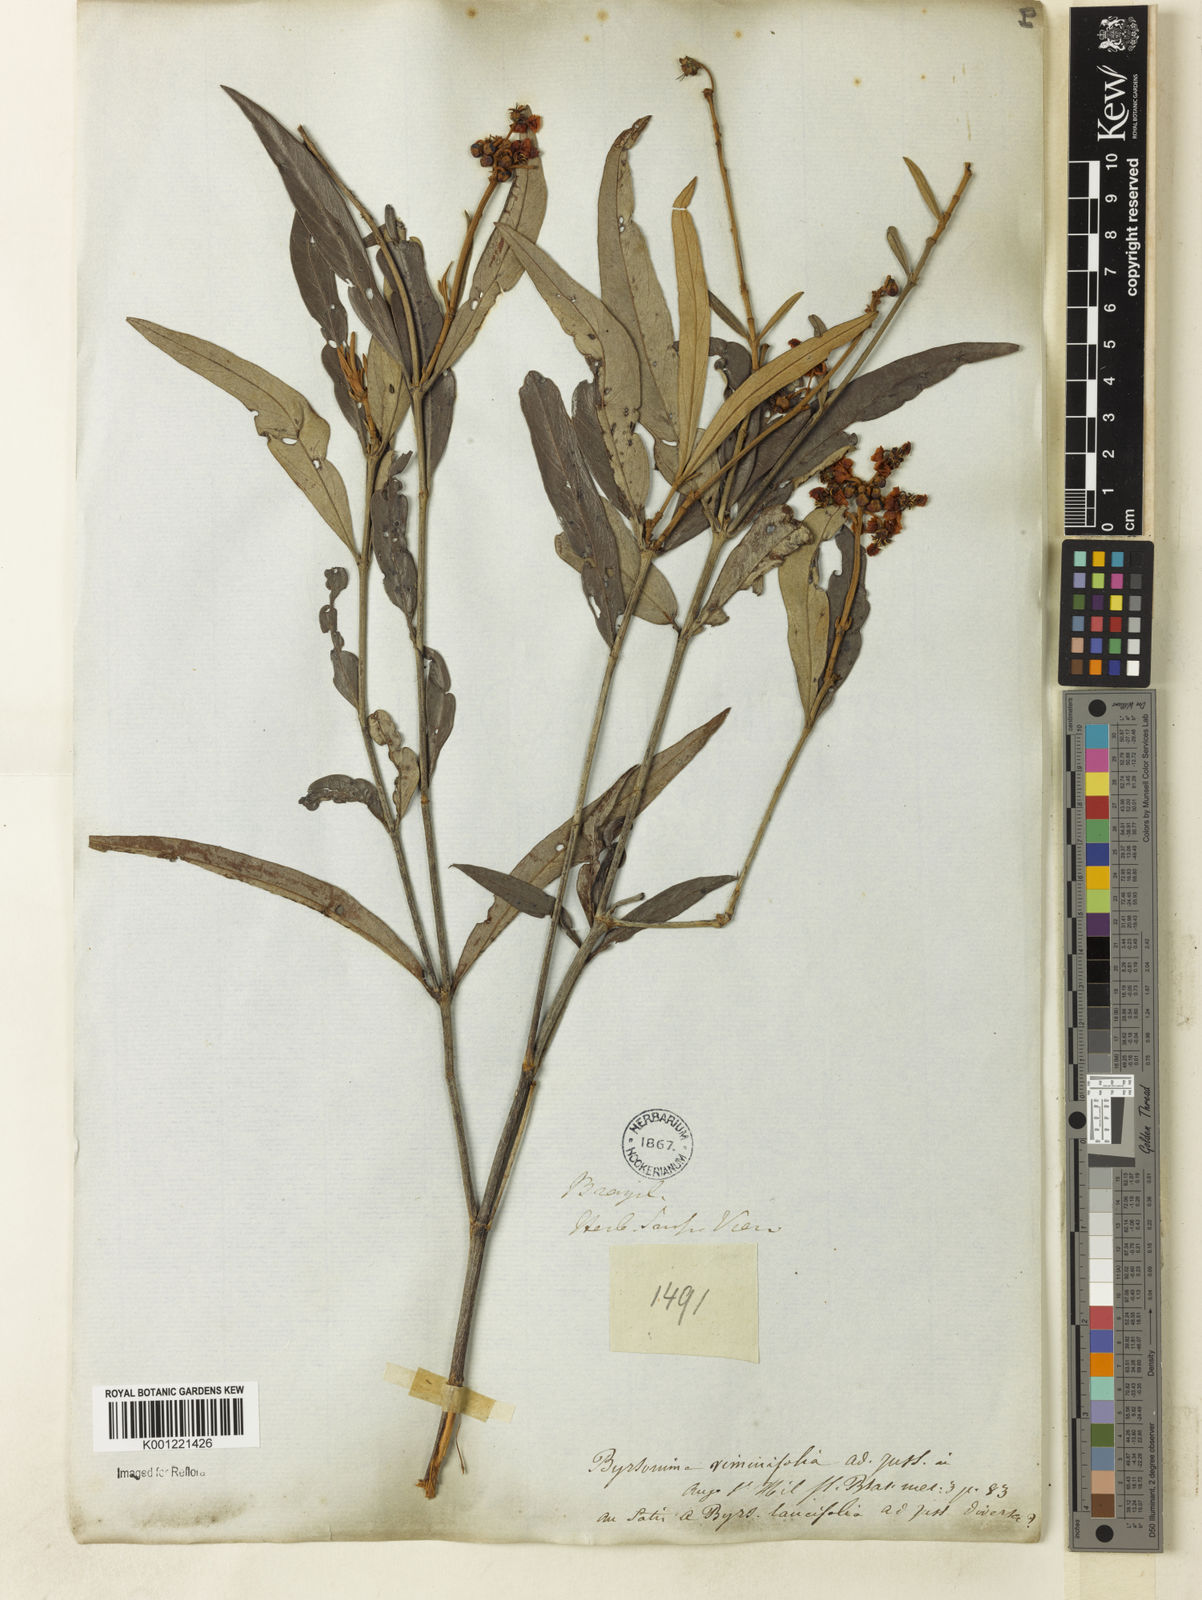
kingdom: Plantae
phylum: Tracheophyta
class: Magnoliopsida
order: Malpighiales
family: Malpighiaceae
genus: Byrsonima
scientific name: Byrsonima viminifolia
